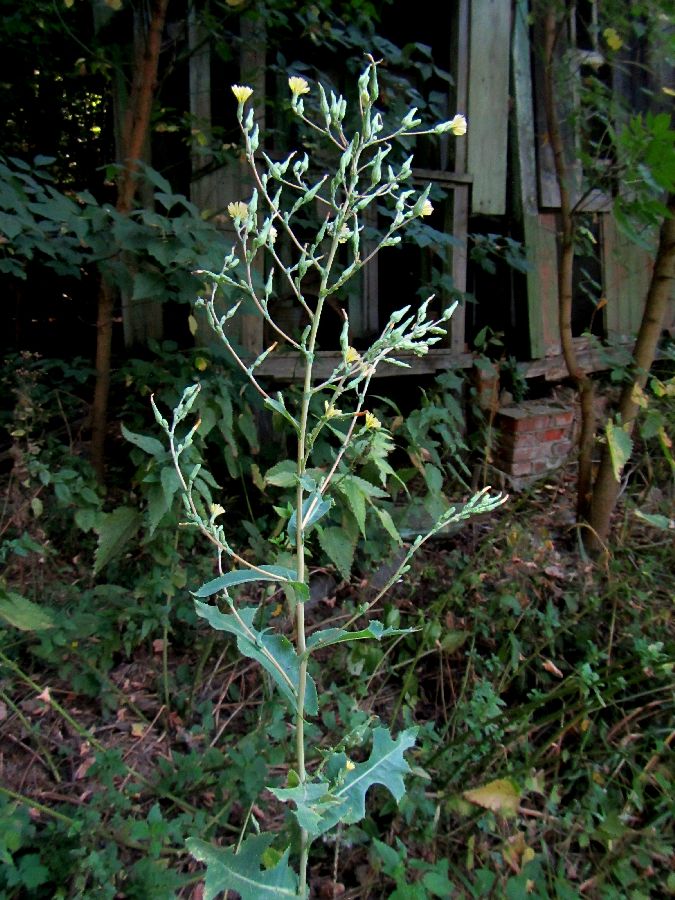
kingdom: Plantae
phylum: Tracheophyta
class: Magnoliopsida
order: Asterales
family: Asteraceae
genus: Lactuca
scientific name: Lactuca serriola
